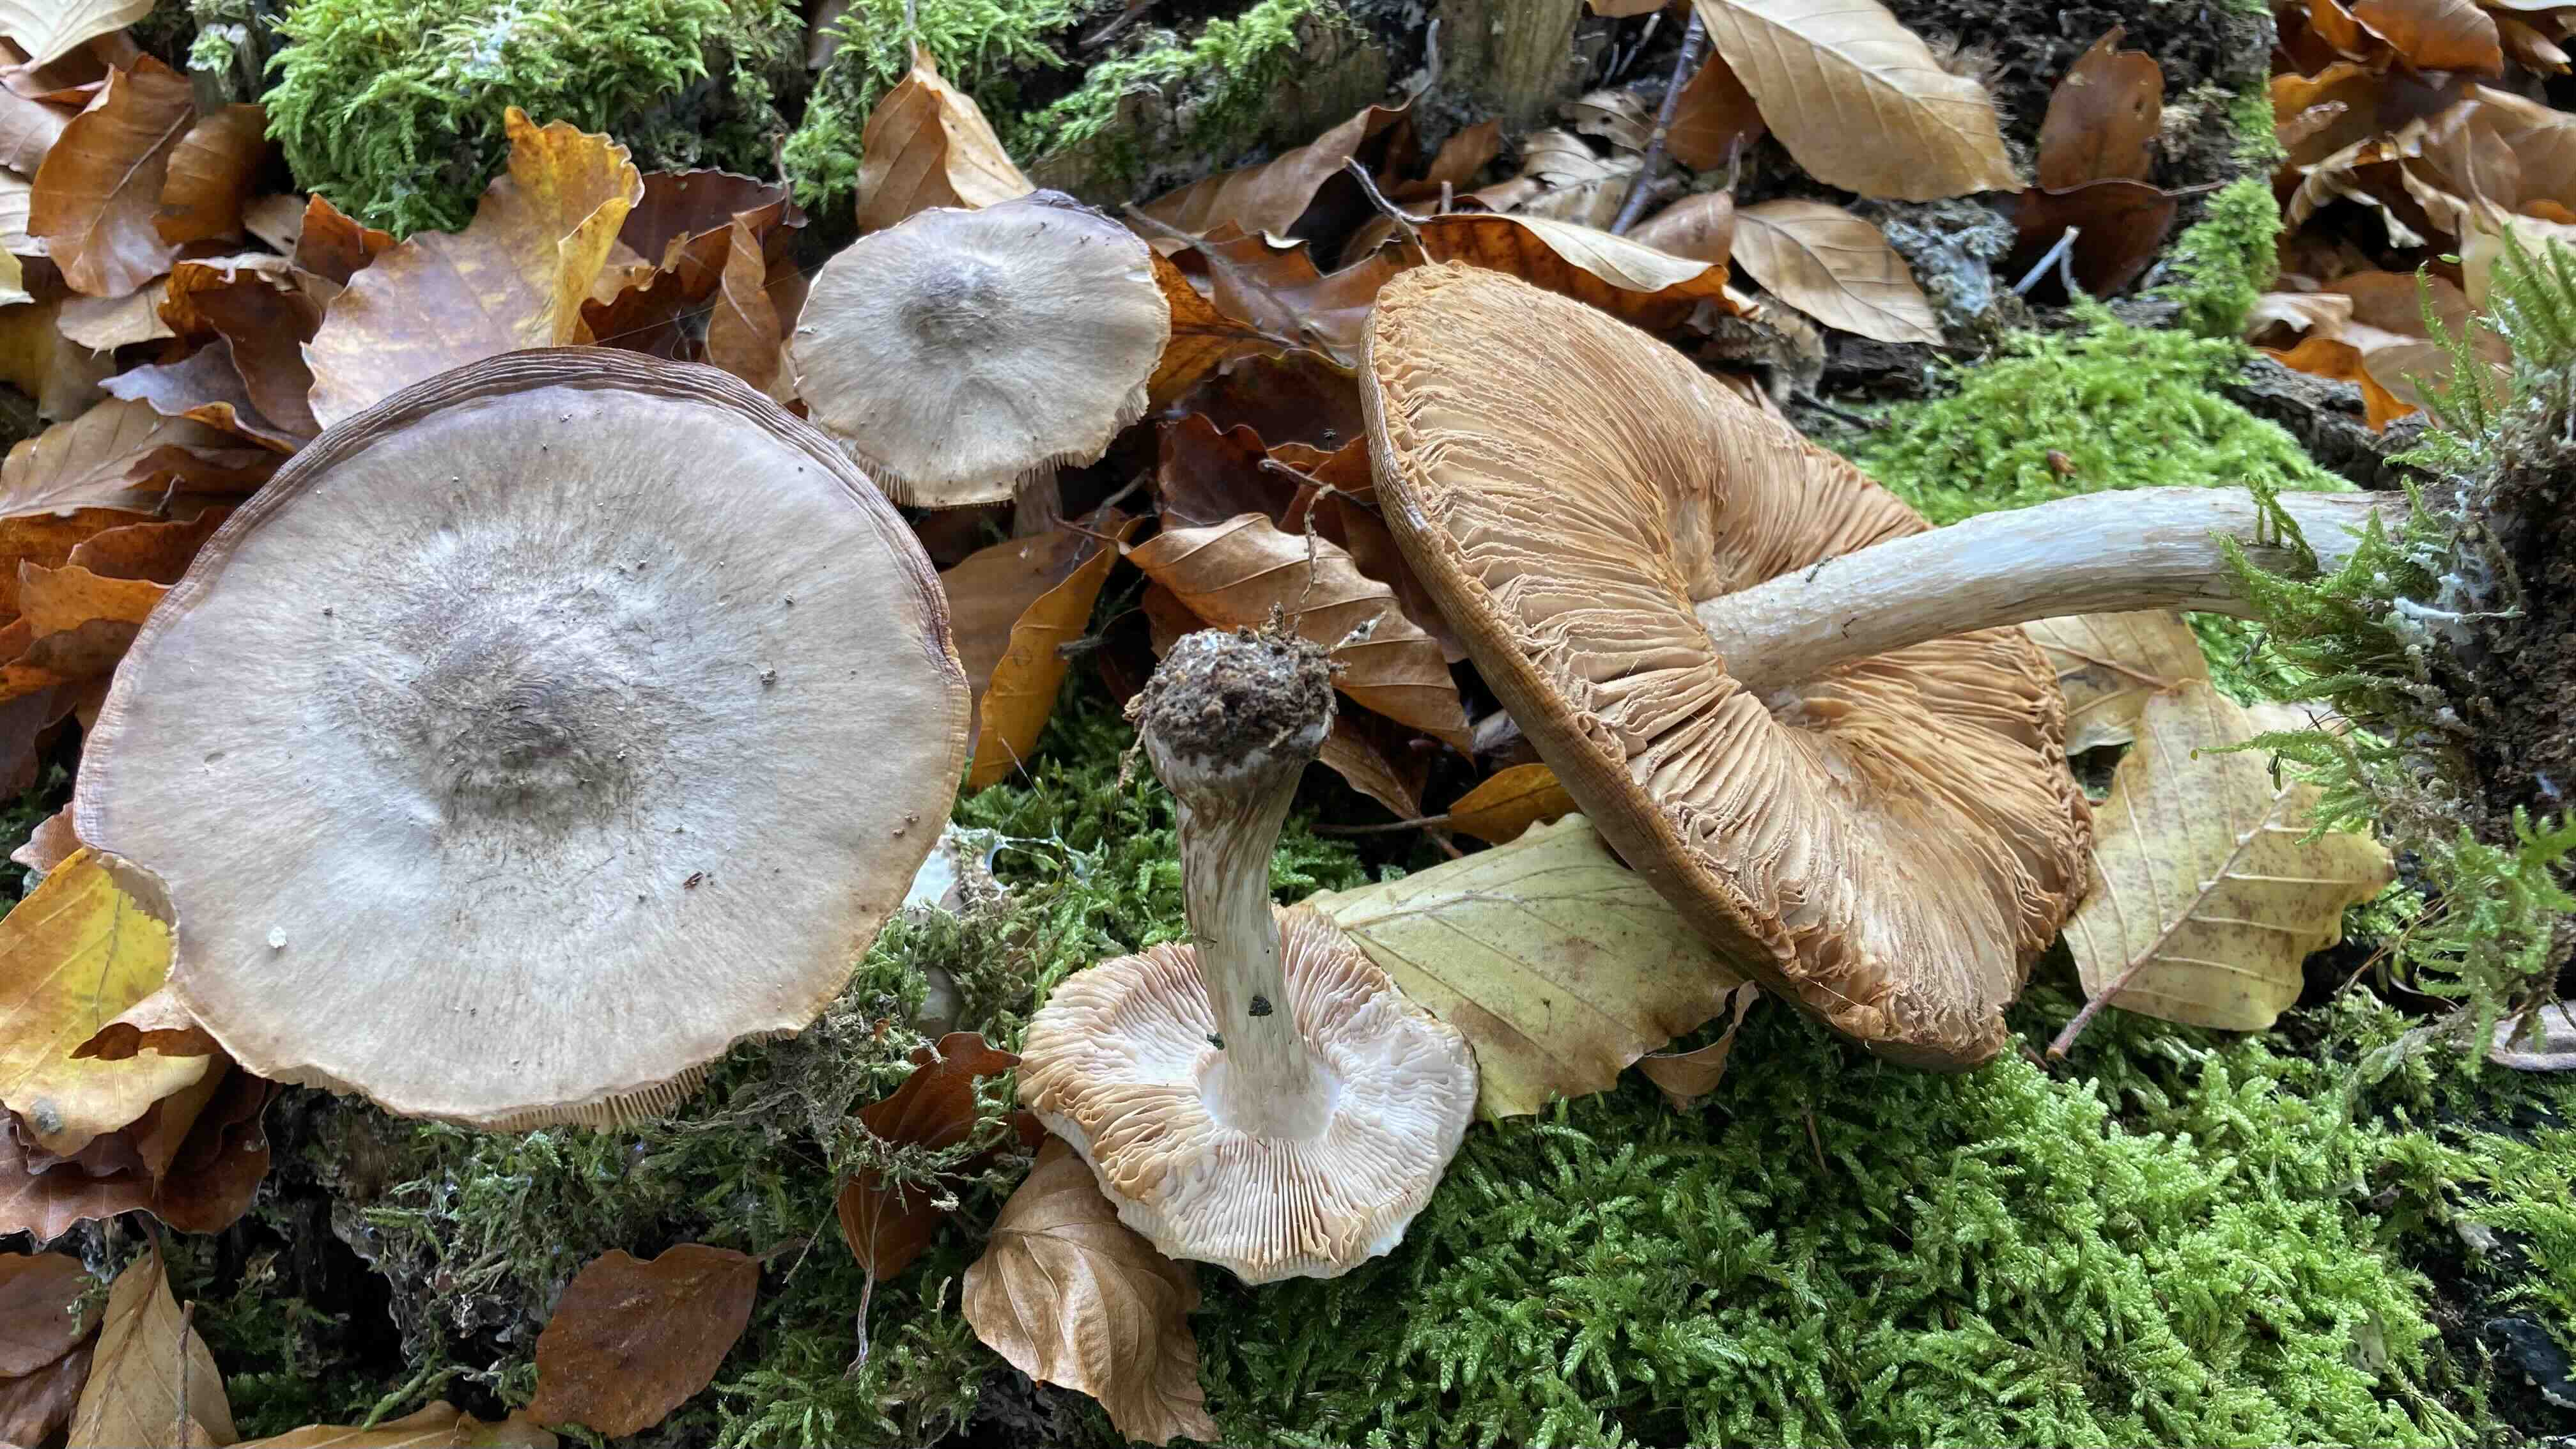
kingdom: Fungi
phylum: Basidiomycota
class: Agaricomycetes
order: Agaricales
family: Pluteaceae
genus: Pluteus
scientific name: Pluteus cervinus
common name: sodfarvet skærmhat
